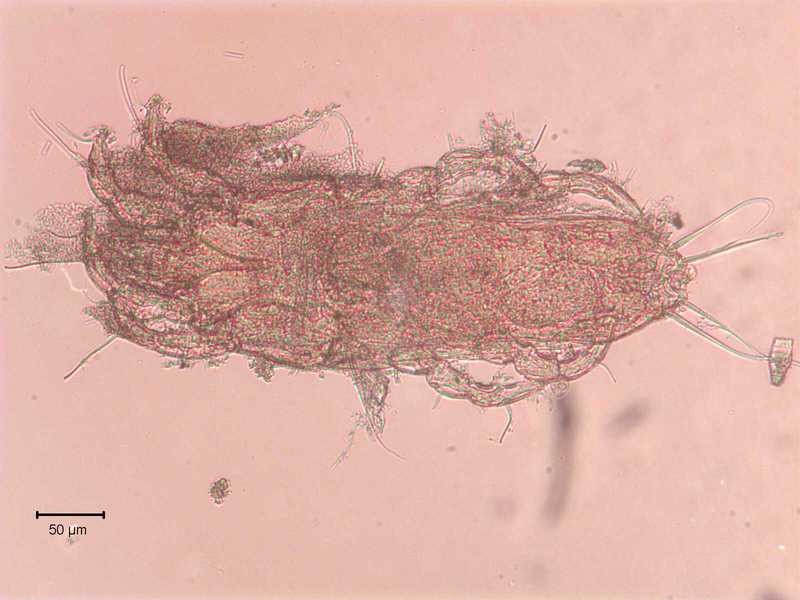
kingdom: Animalia
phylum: Arthropoda
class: Arachnida
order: Sarcoptiformes
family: Proctophyllodidae
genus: Proctophyllodes
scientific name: Proctophyllodes corvorum
